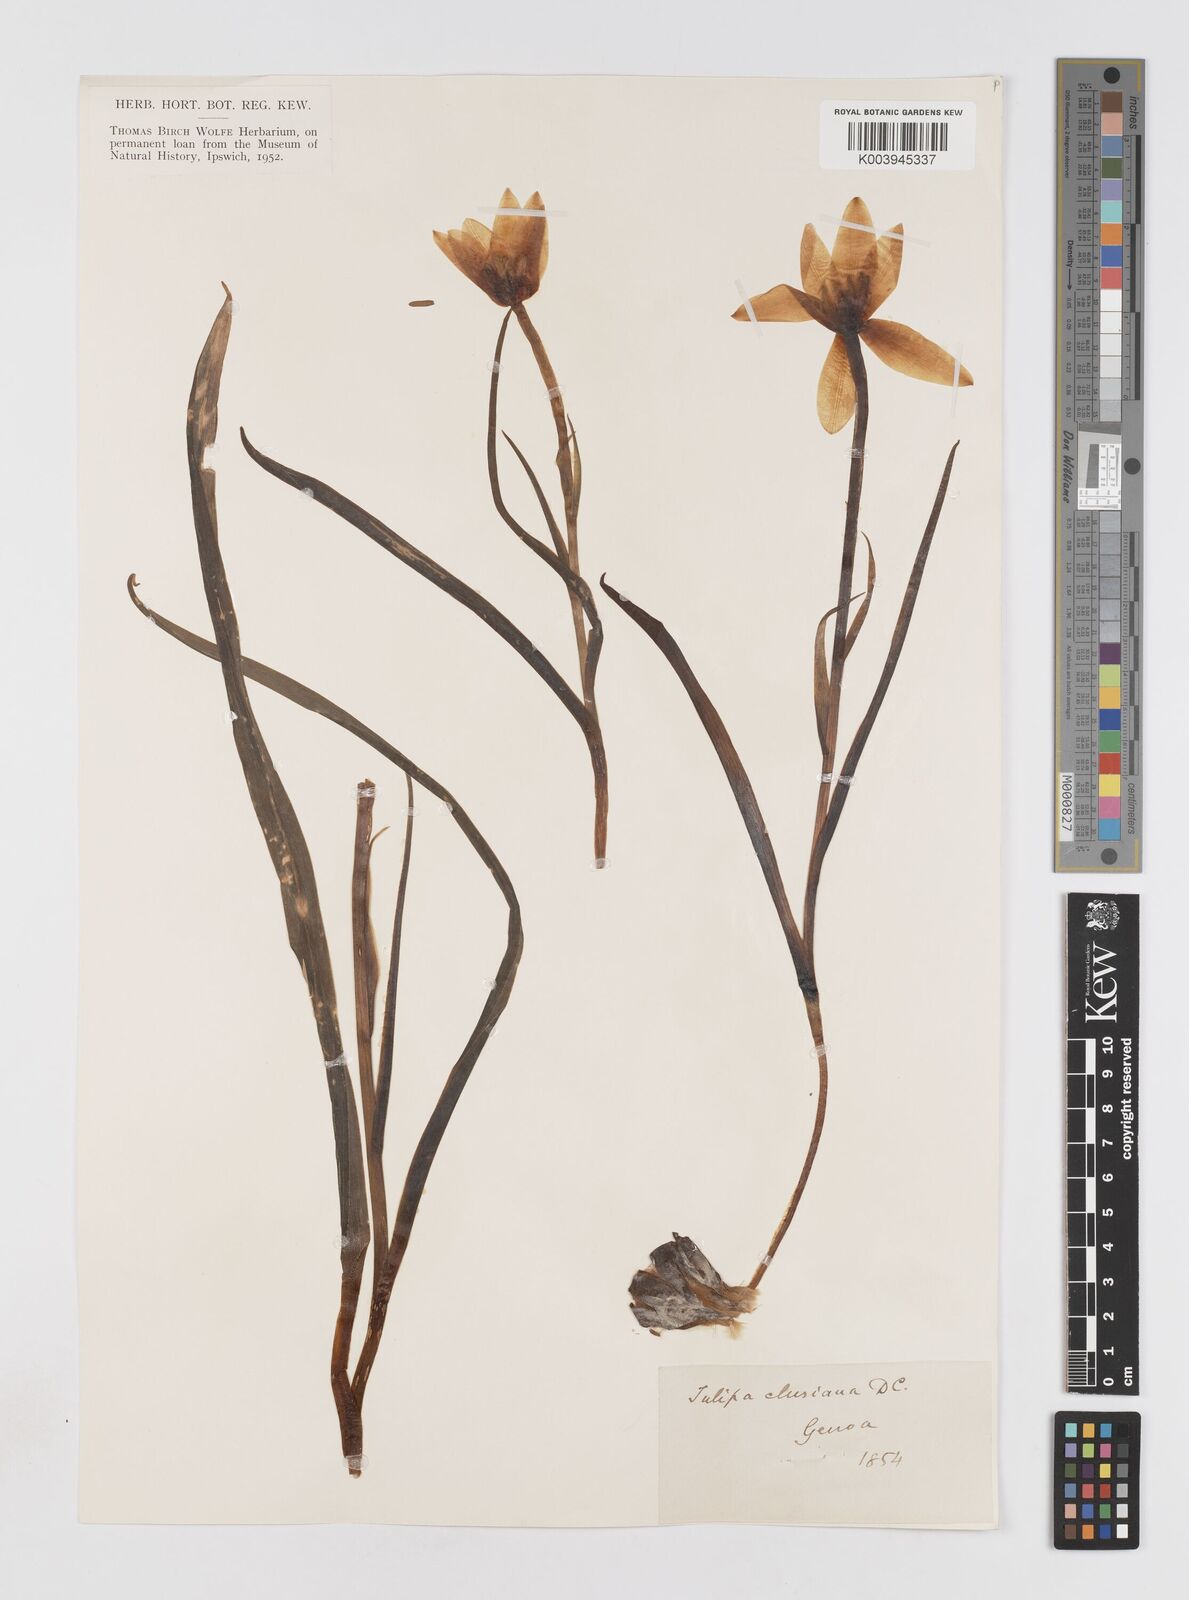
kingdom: Plantae
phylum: Tracheophyta
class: Liliopsida
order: Liliales
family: Liliaceae
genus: Tulipa
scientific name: Tulipa clusiana
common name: Lady tulip
